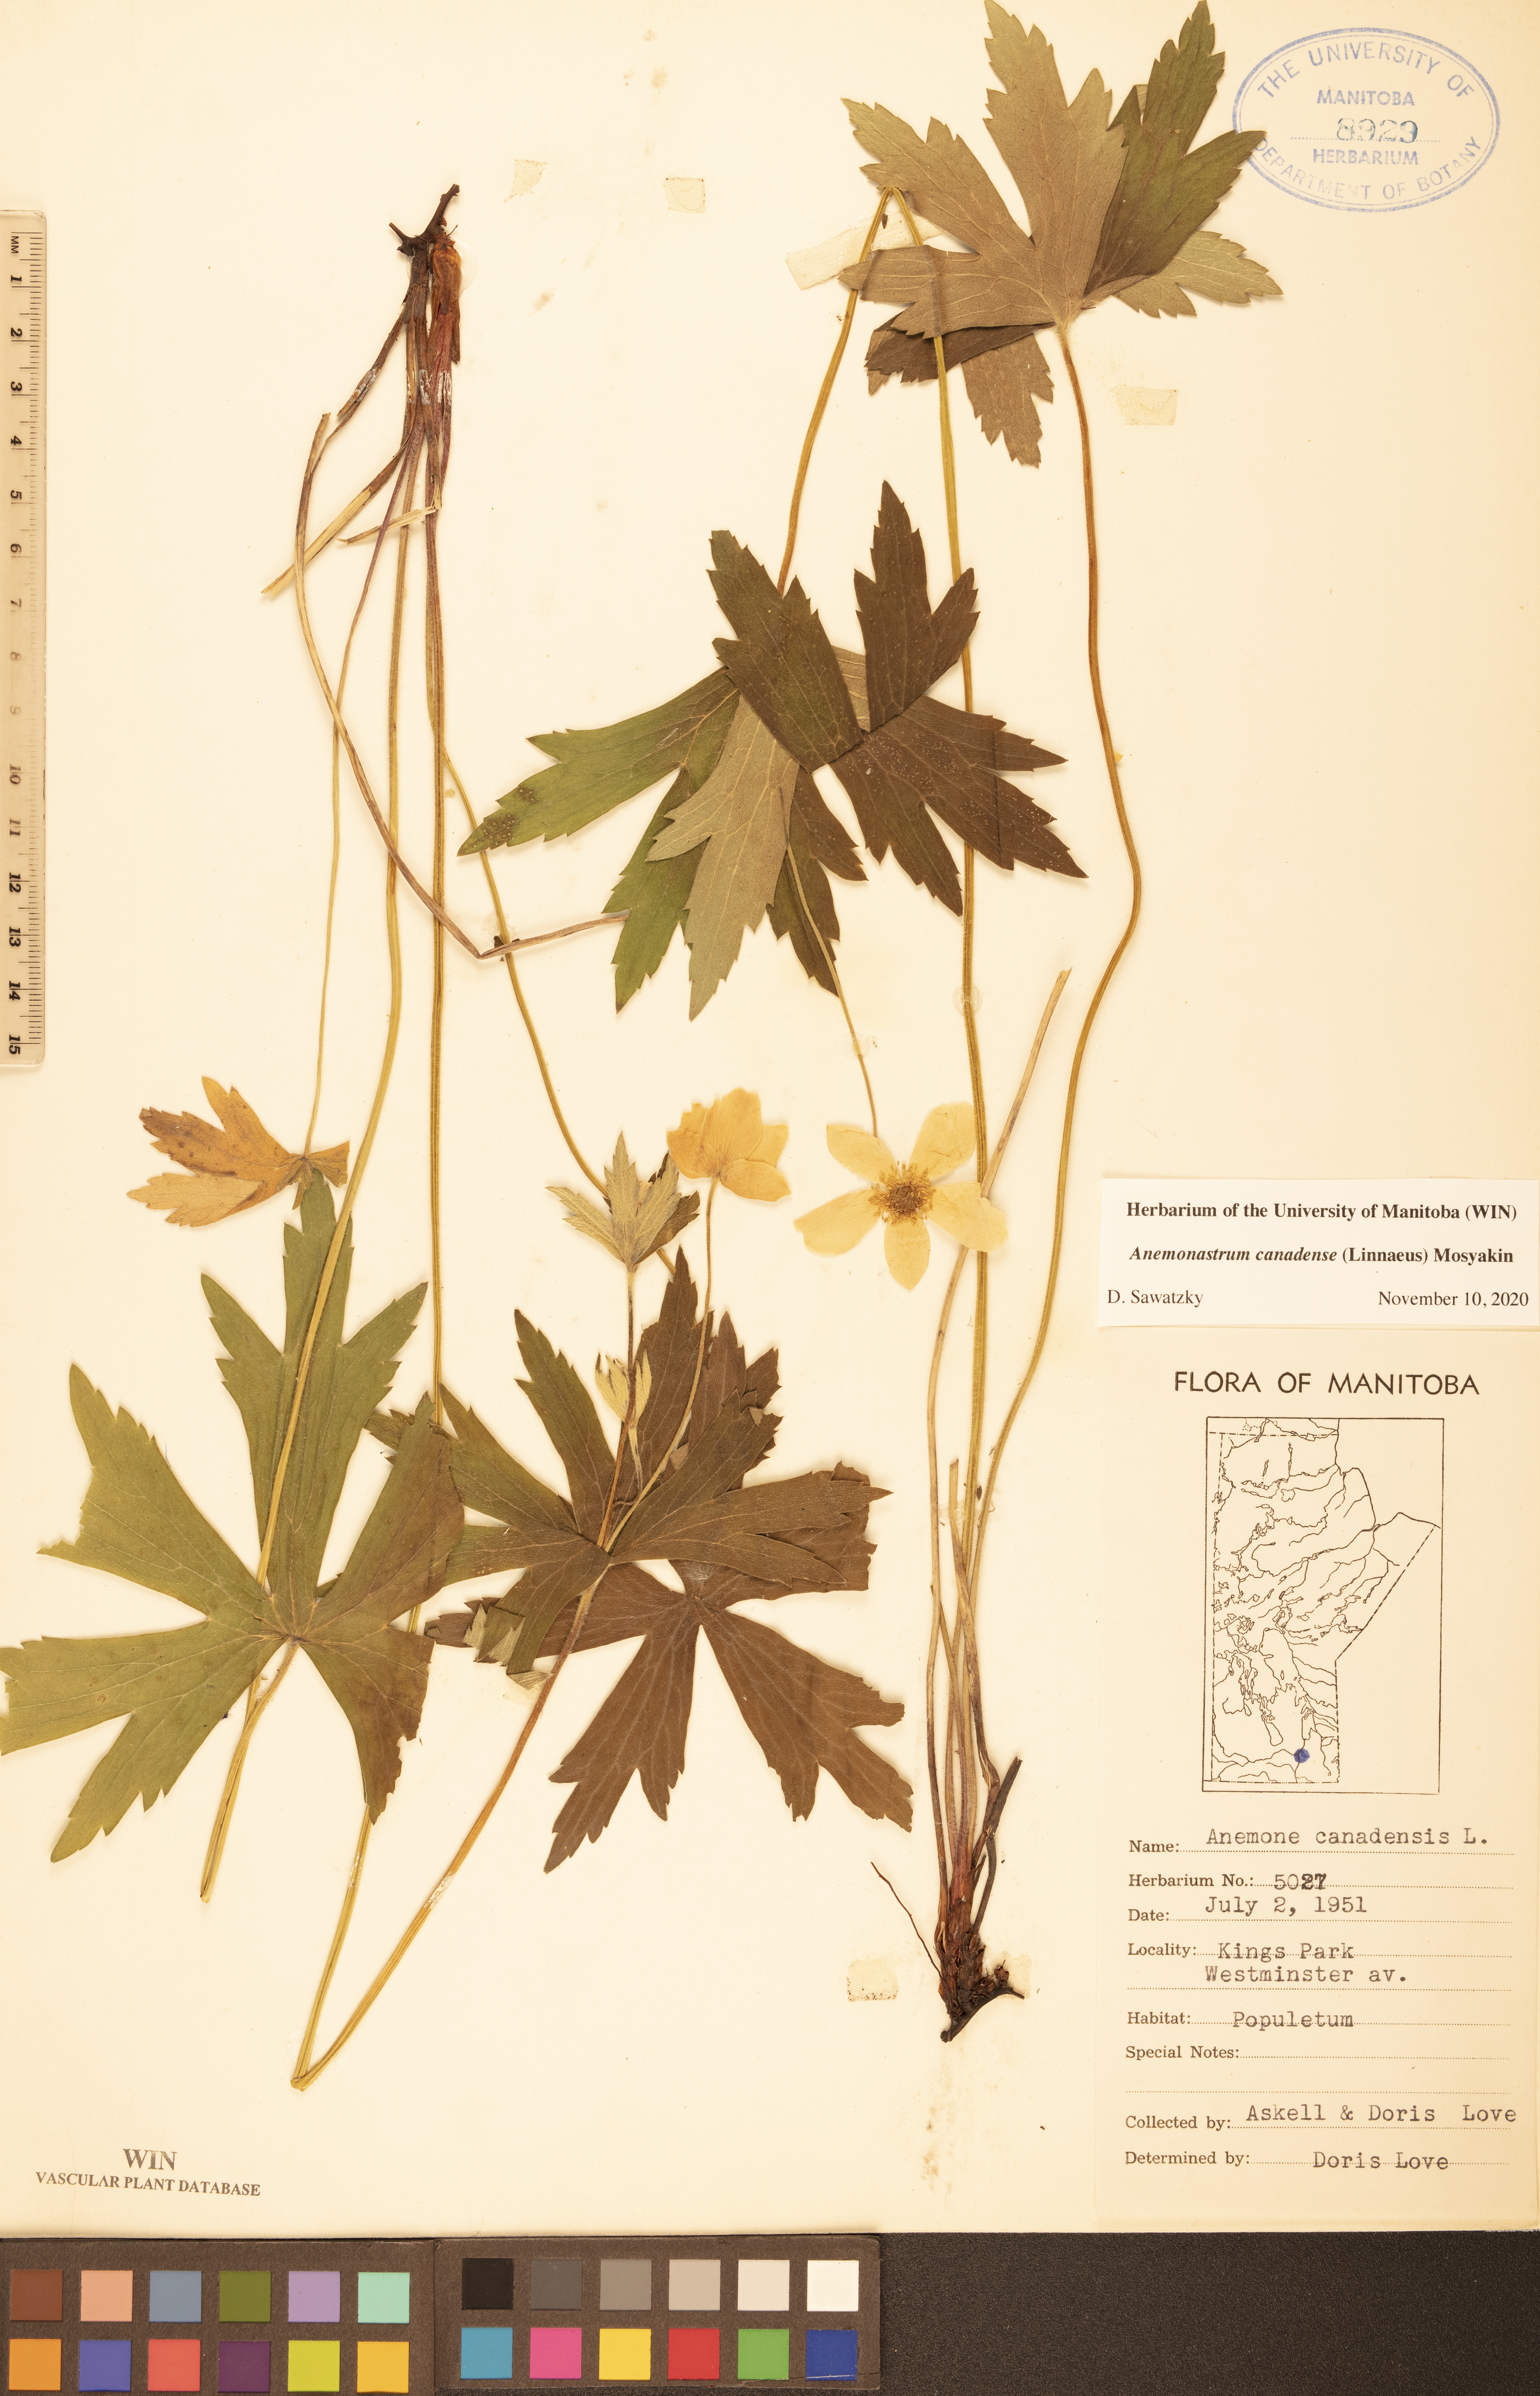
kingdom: Plantae
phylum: Tracheophyta
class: Magnoliopsida
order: Ranunculales
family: Ranunculaceae
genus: Anemonastrum
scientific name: Anemonastrum canadense
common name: Canada anemone
